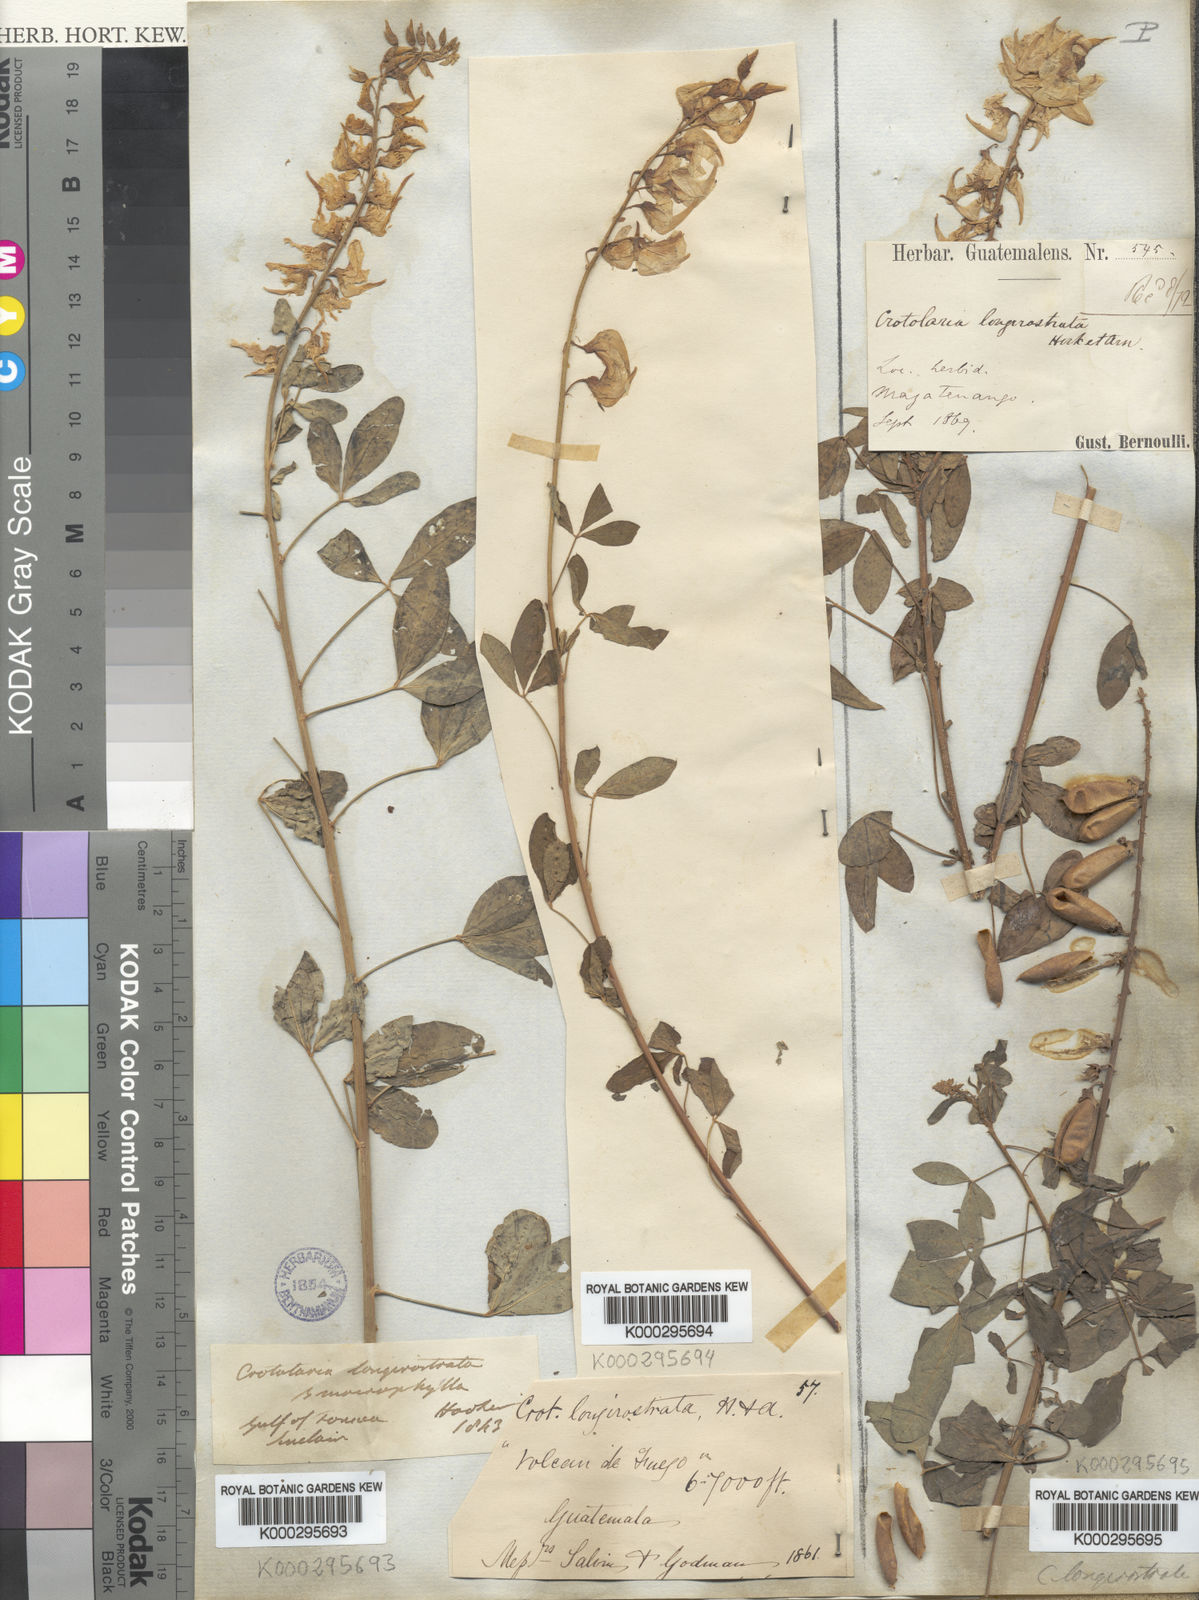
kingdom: Plantae
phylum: Tracheophyta
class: Magnoliopsida
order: Fabales
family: Fabaceae
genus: Crotalaria
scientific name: Crotalaria
